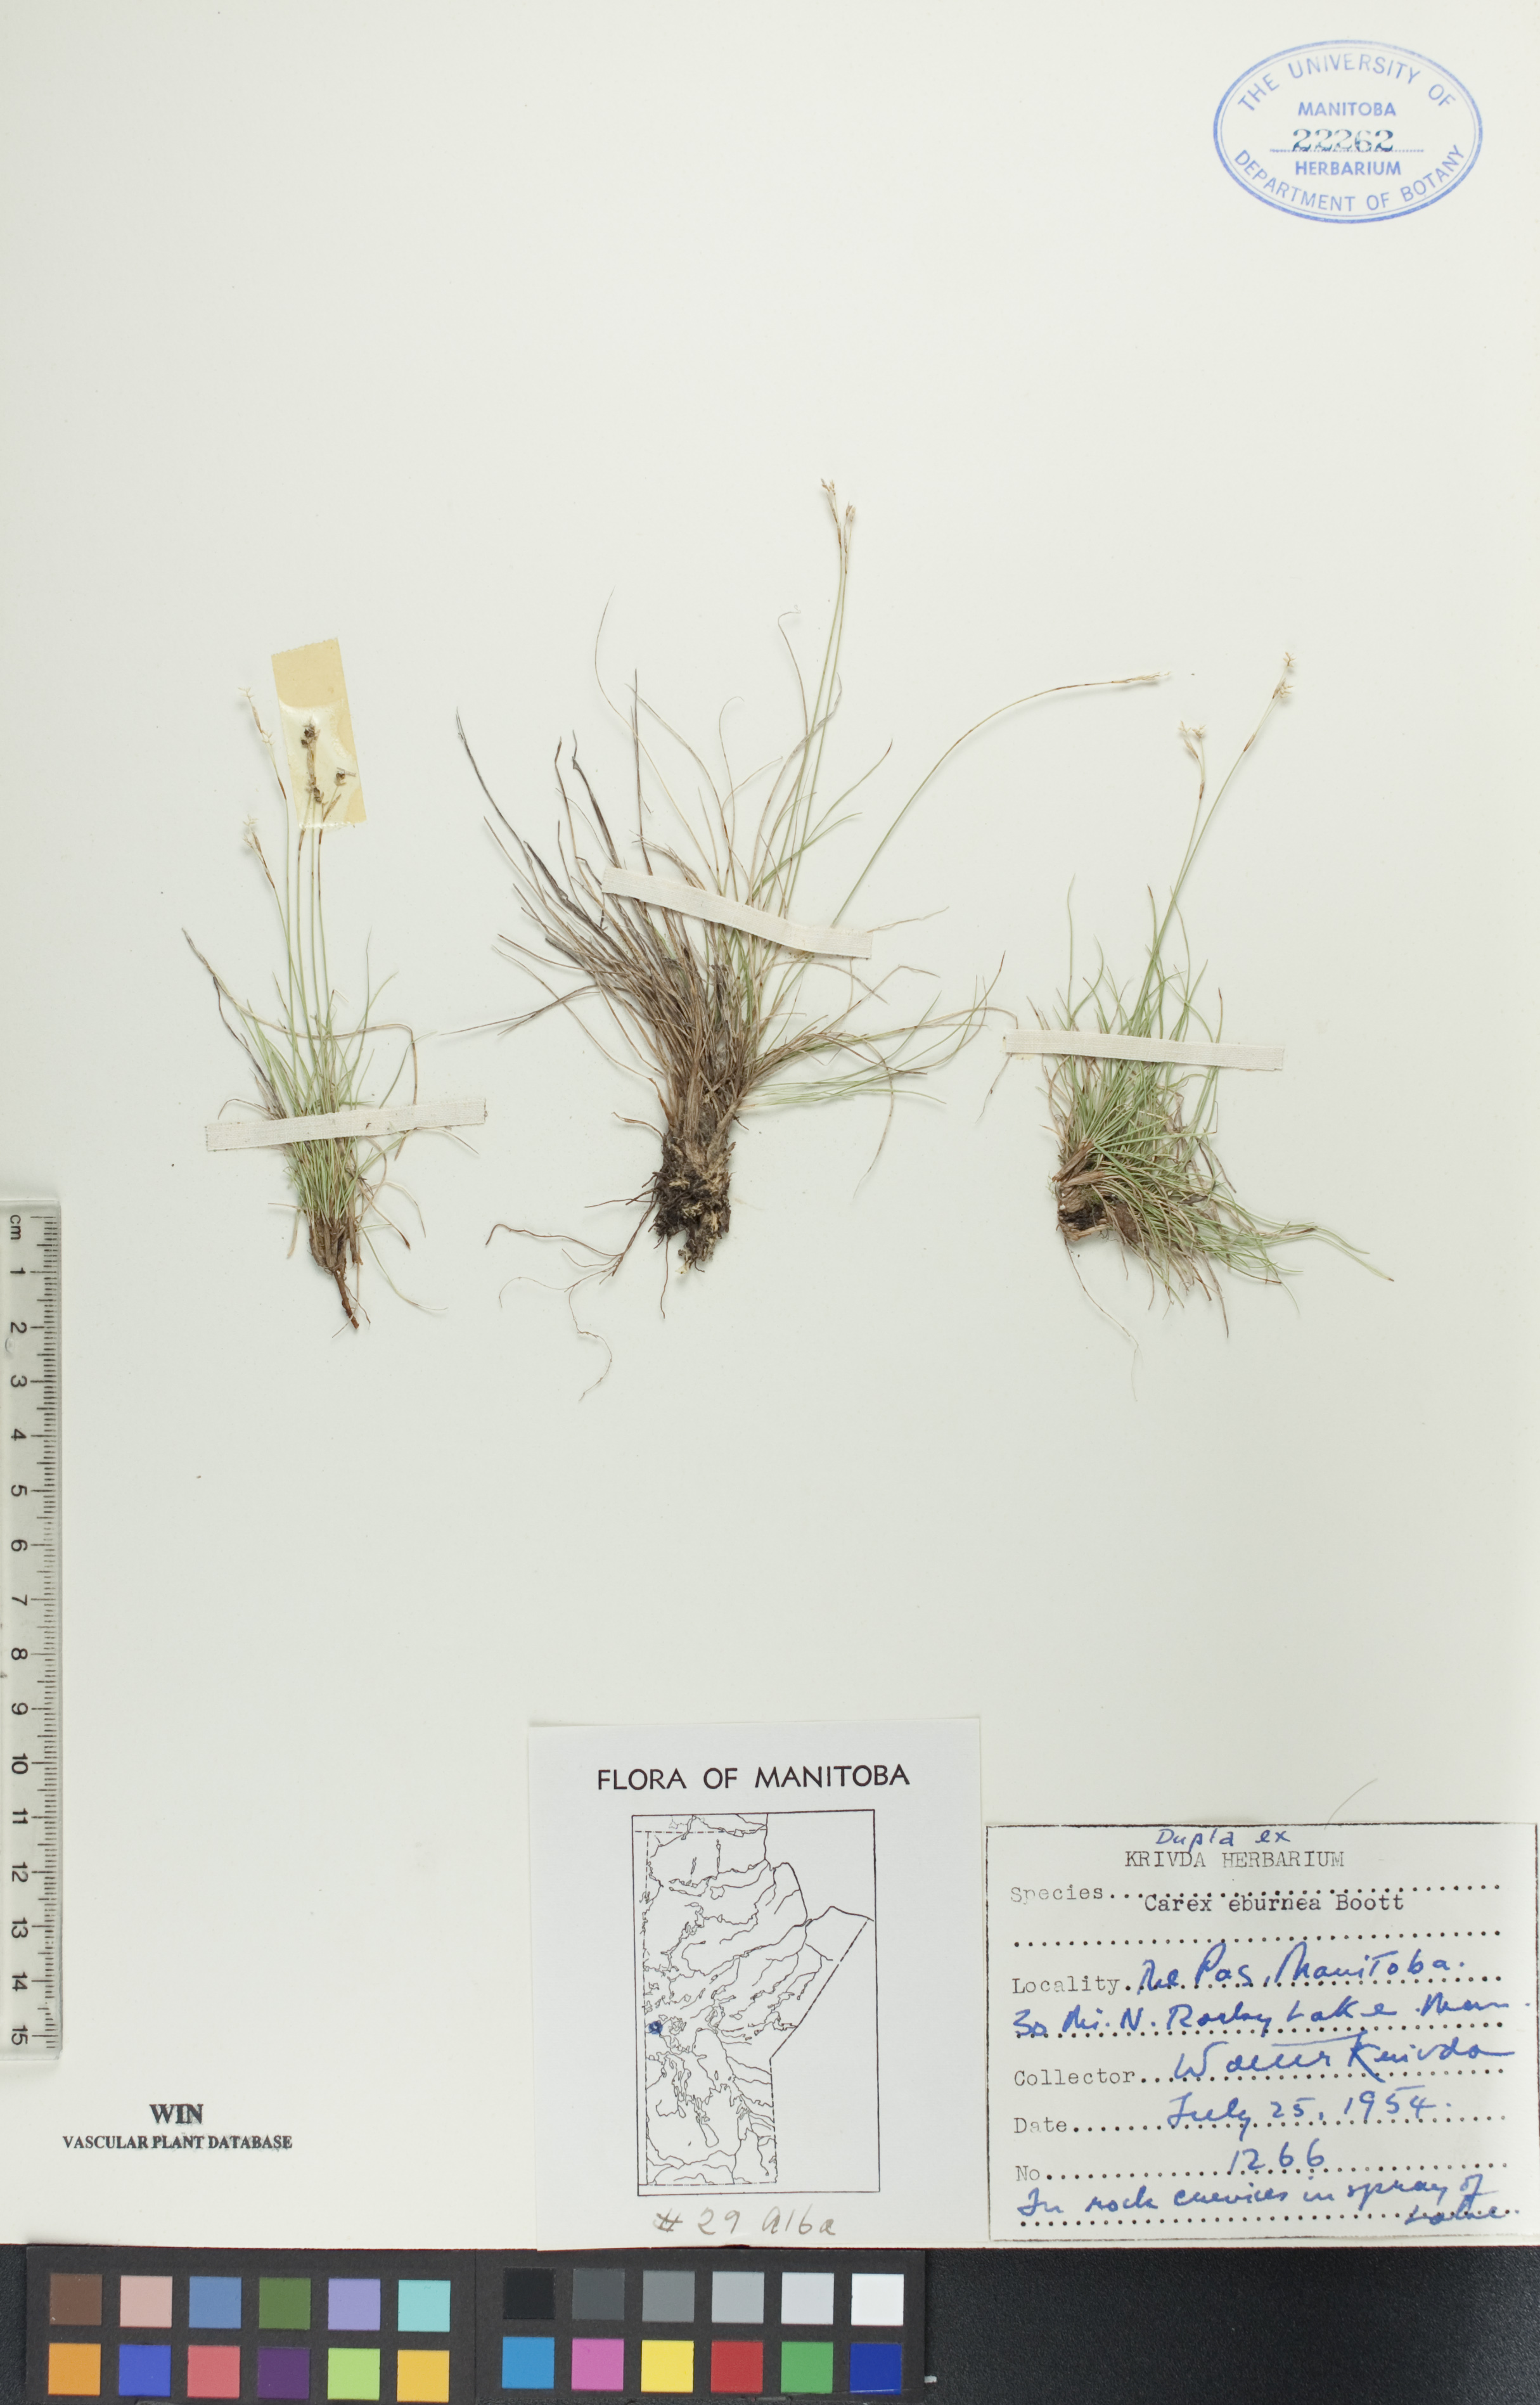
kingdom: Plantae
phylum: Tracheophyta
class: Liliopsida
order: Poales
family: Cyperaceae
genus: Carex
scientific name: Carex eburnea
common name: Bristle-leaved sedge
